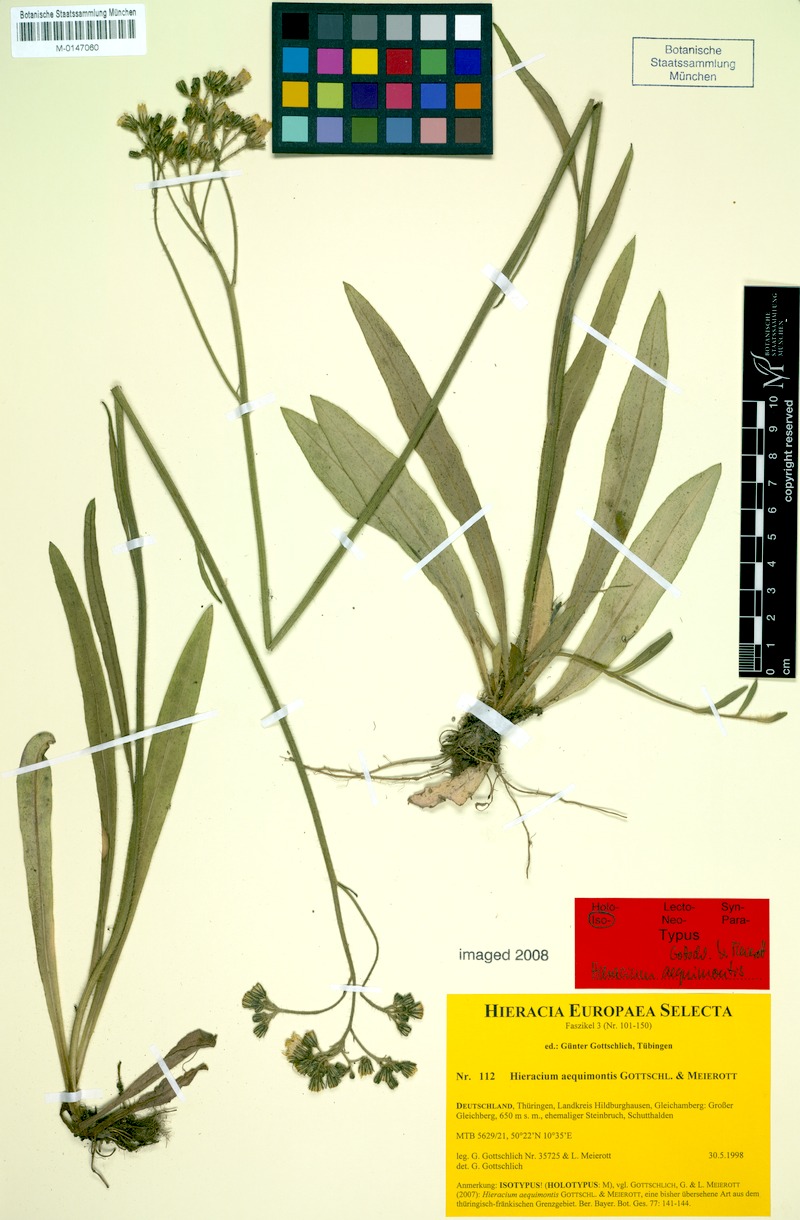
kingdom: Plantae
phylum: Tracheophyta
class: Magnoliopsida
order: Asterales
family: Asteraceae
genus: Pilosella
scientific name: Pilosella aequimontis
